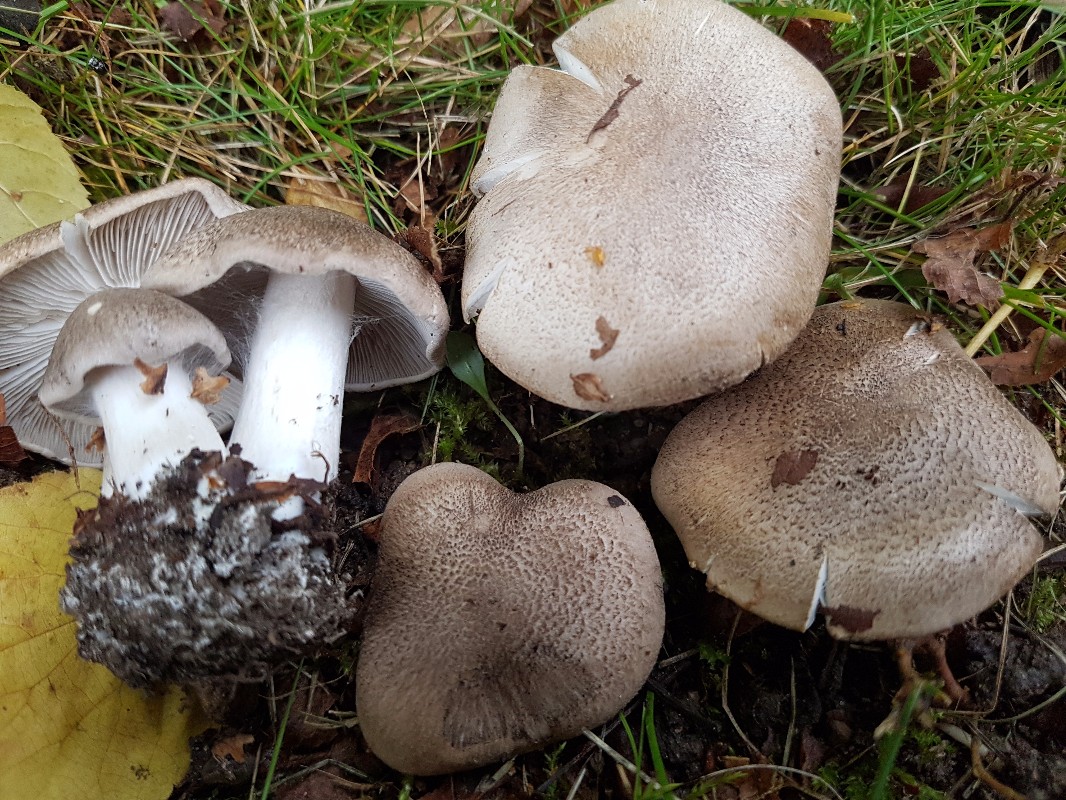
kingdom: Fungi
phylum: Basidiomycota
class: Agaricomycetes
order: Agaricales
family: Tricholomataceae
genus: Tricholoma
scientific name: Tricholoma argyraceum
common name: slør-ridderhat
